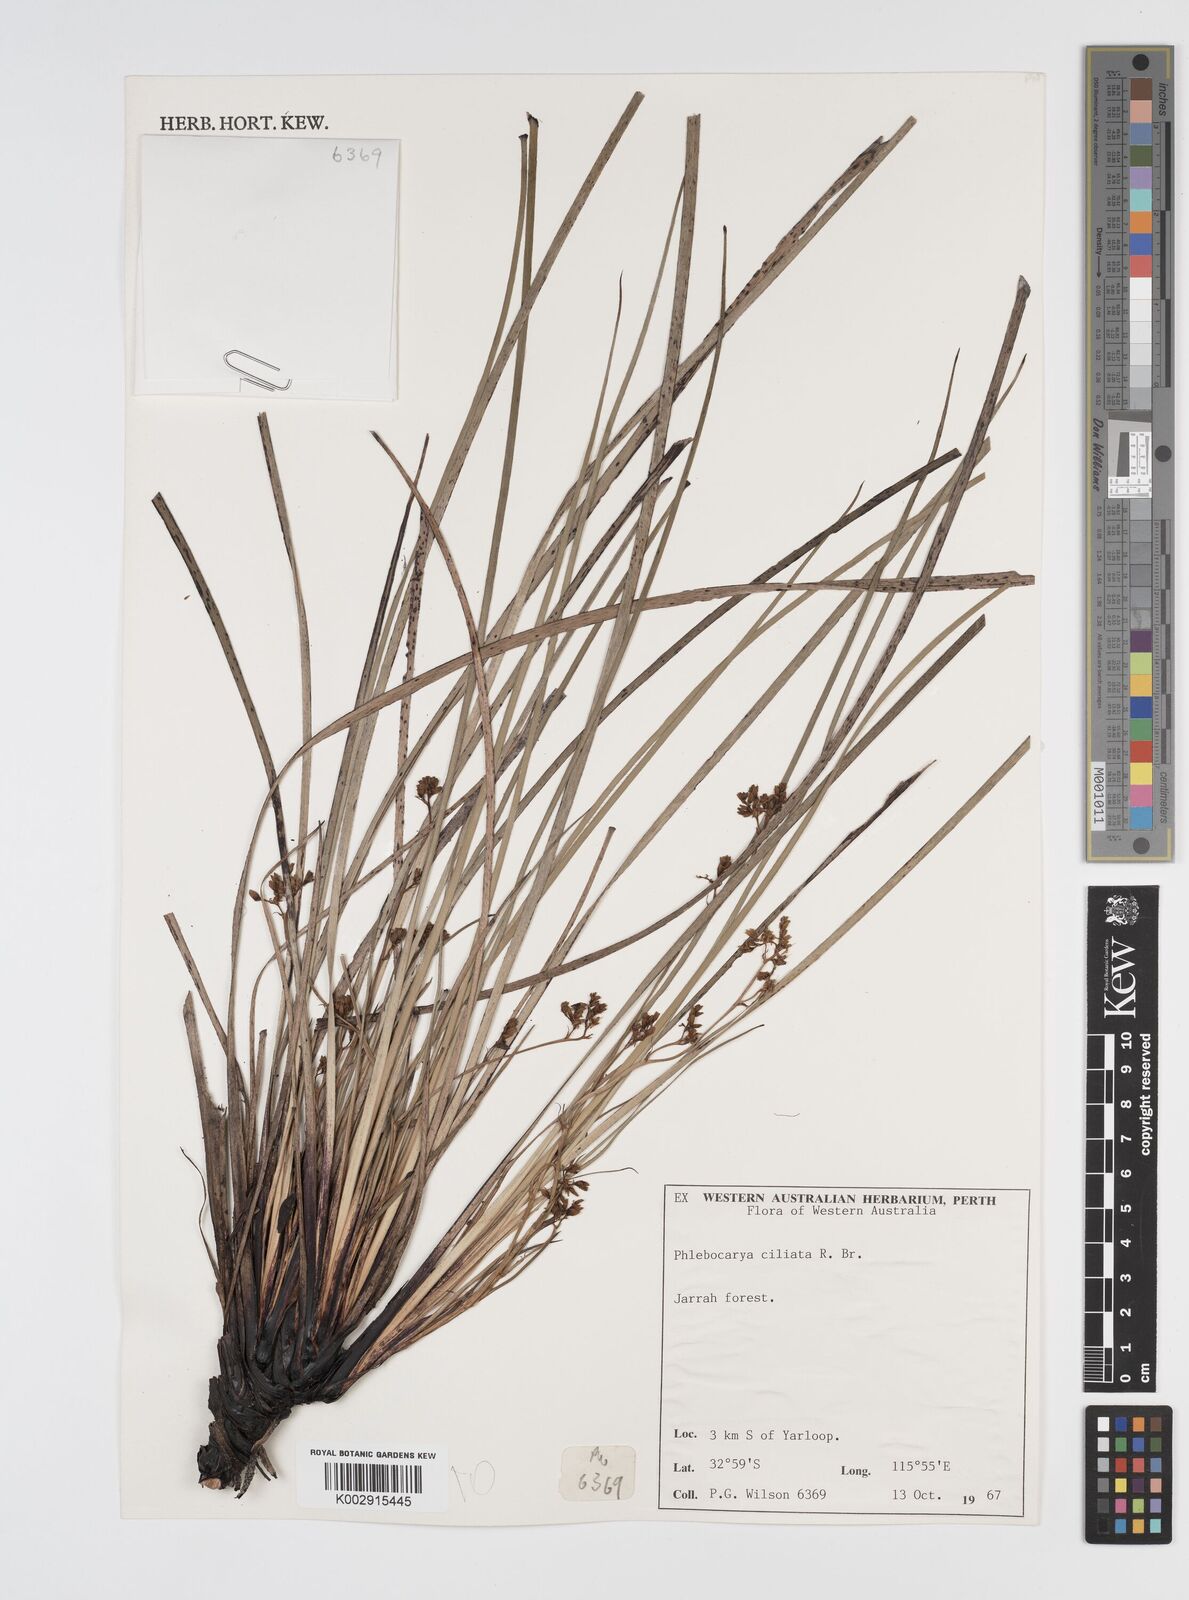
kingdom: Plantae
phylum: Tracheophyta
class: Liliopsida
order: Commelinales
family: Haemodoraceae
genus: Phlebocarya
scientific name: Phlebocarya ciliata
